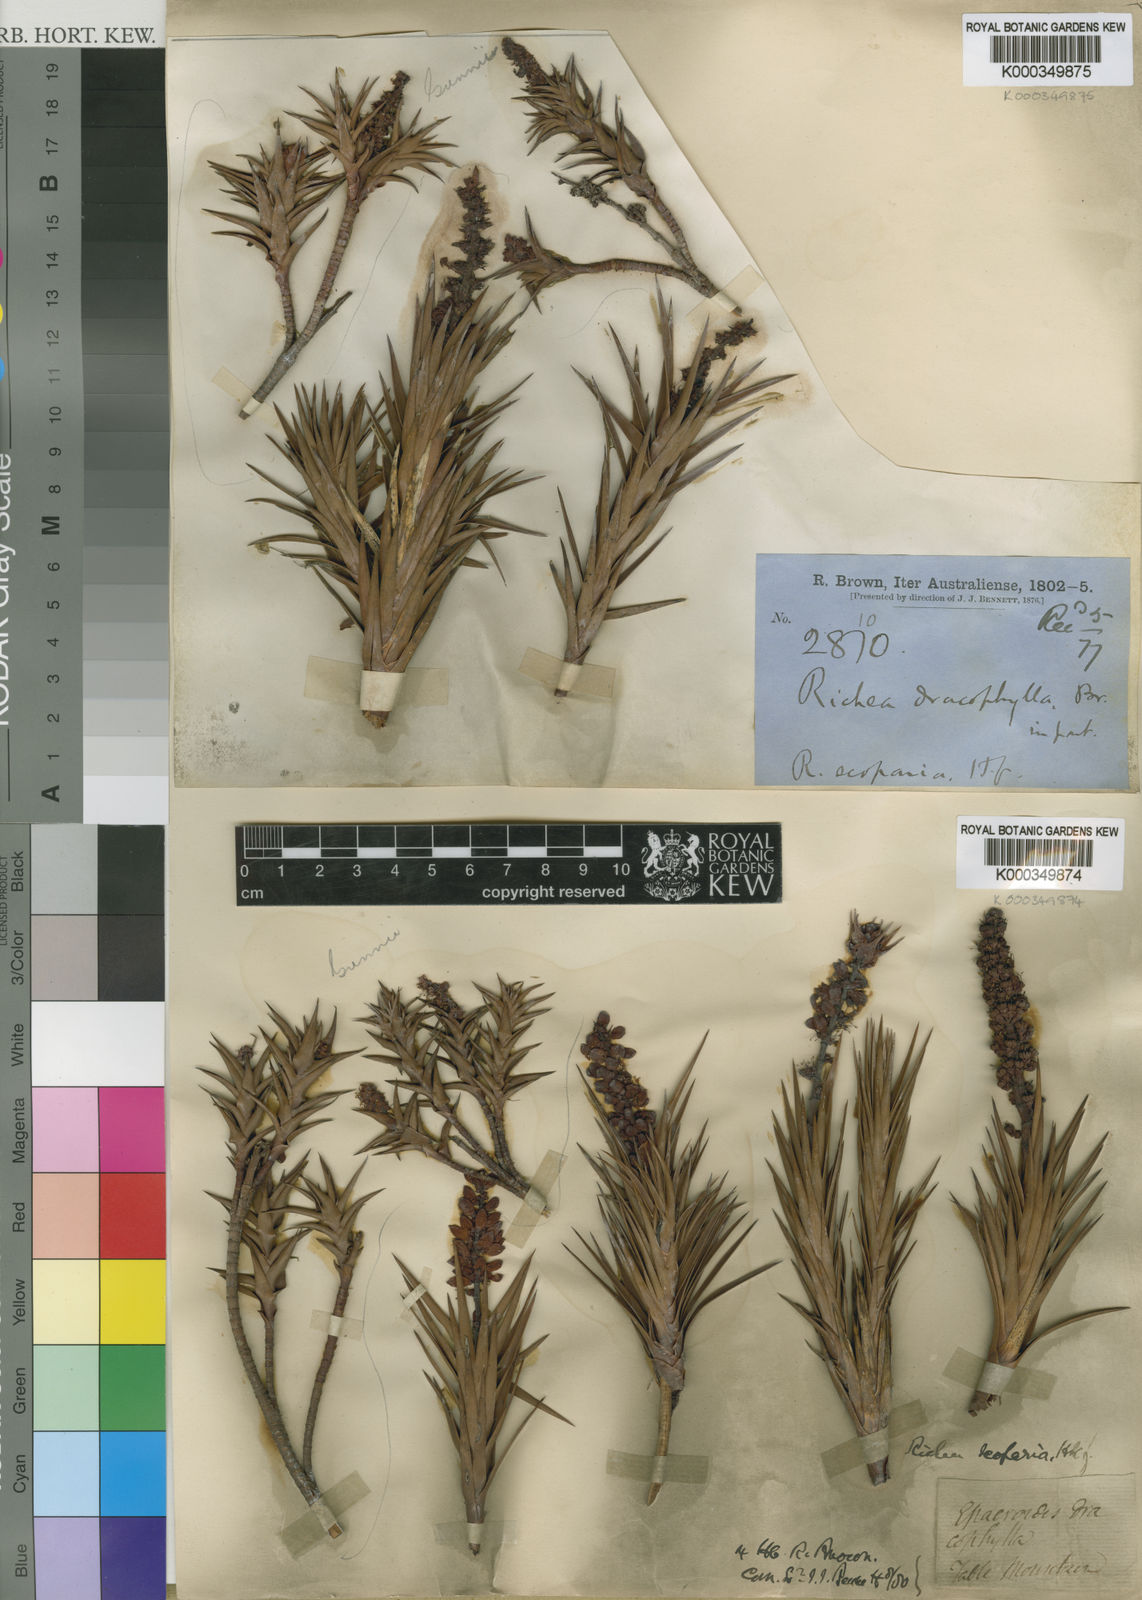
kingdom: Plantae
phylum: Tracheophyta
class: Magnoliopsida
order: Ericales
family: Ericaceae
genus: Dracophyllum
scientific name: Dracophyllum persistentifolium
